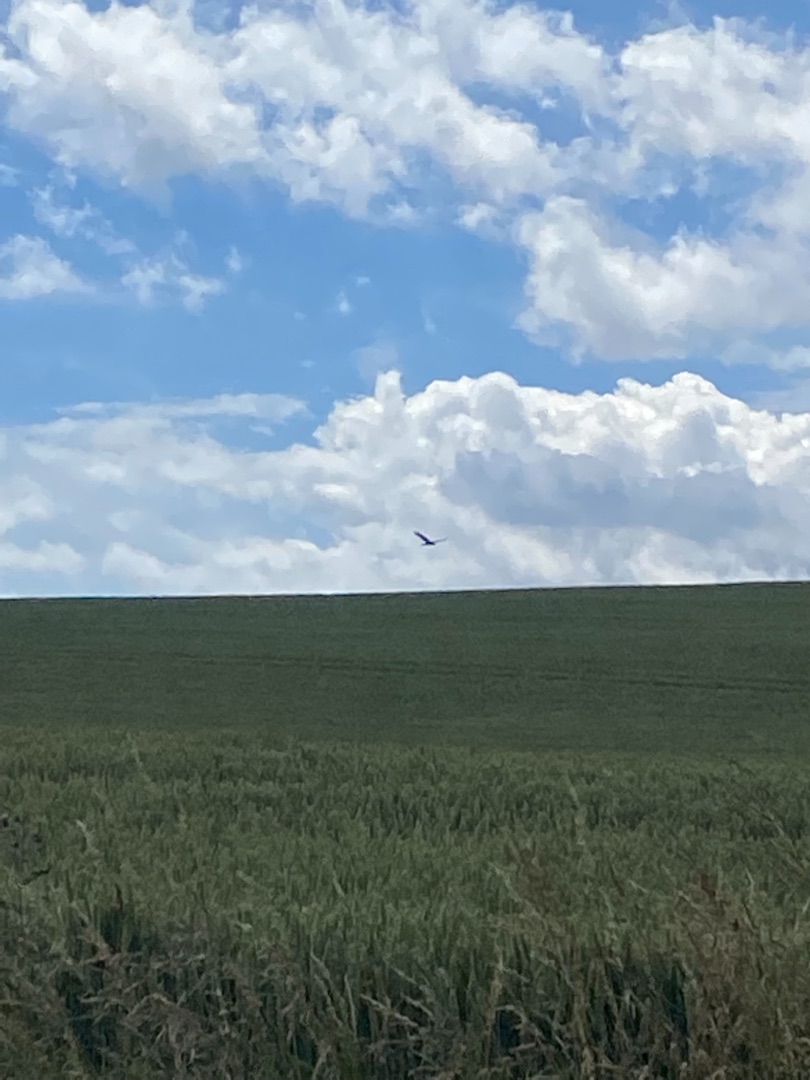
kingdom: Animalia
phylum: Chordata
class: Aves
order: Accipitriformes
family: Accipitridae
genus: Circus
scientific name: Circus aeruginosus
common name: Rørhøg
